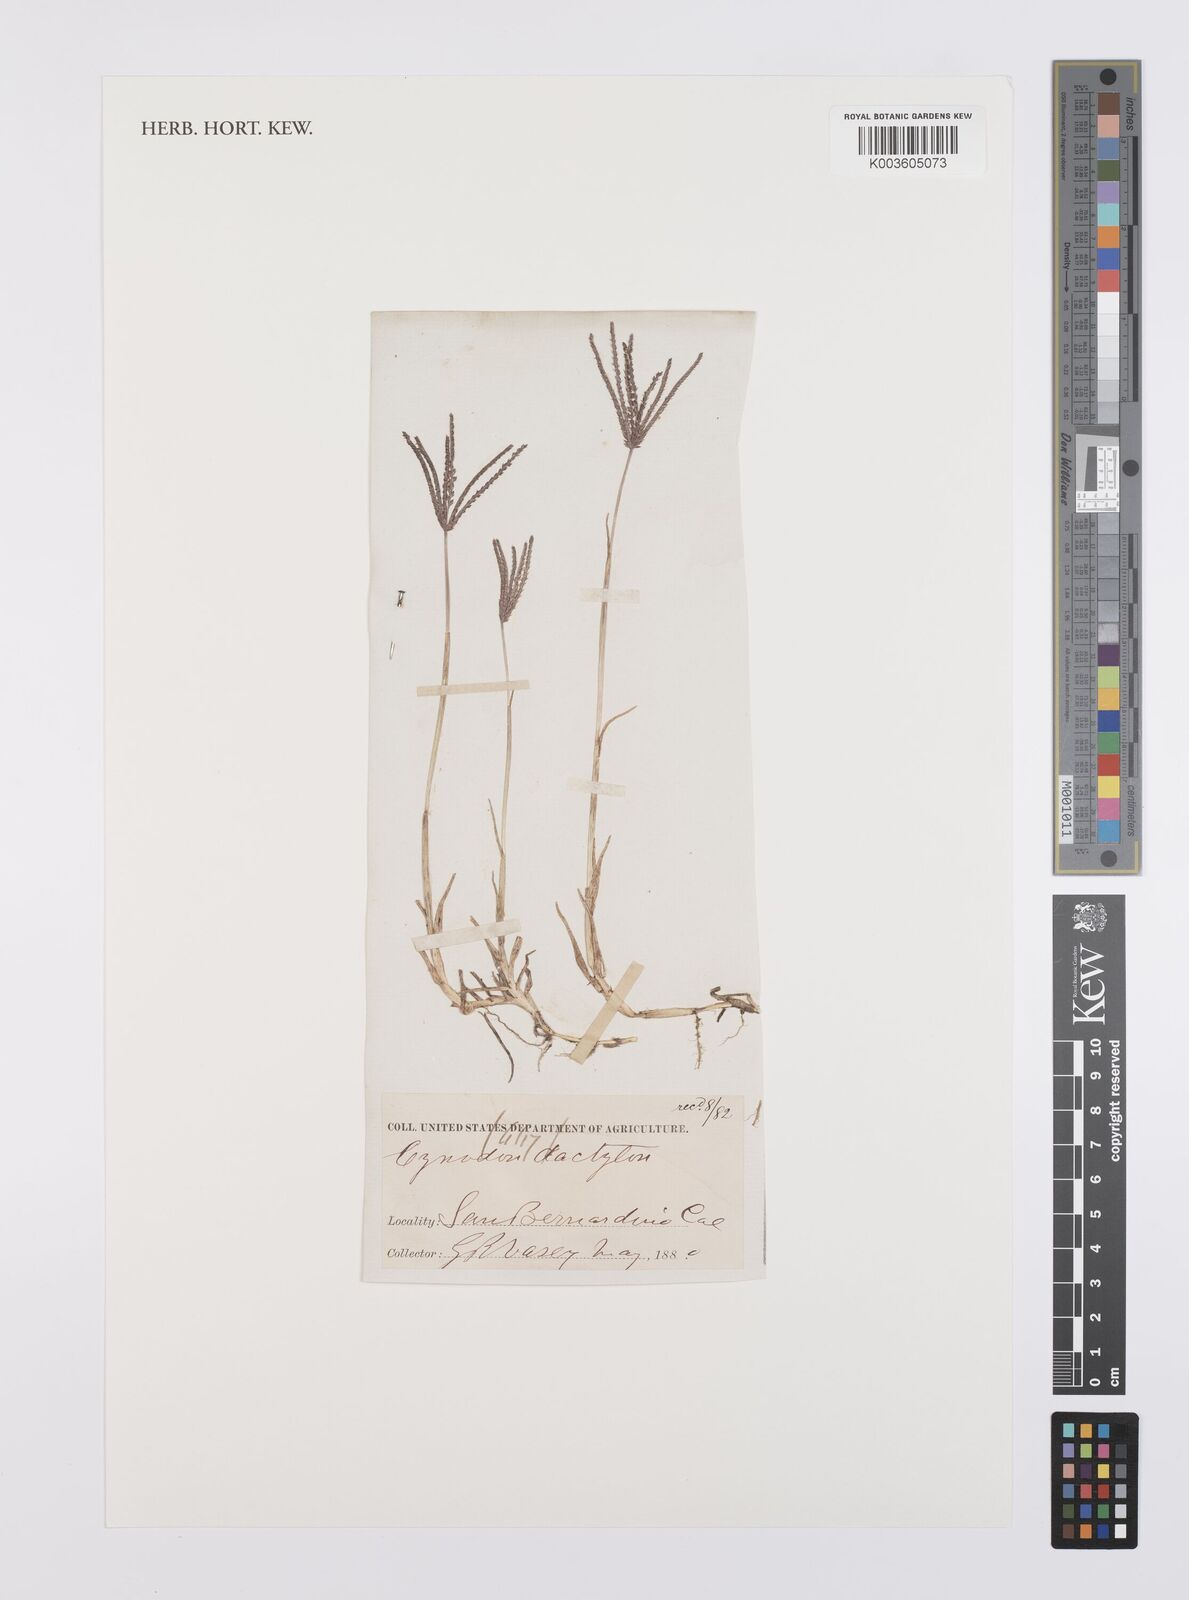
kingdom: Plantae
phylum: Tracheophyta
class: Liliopsida
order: Poales
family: Poaceae
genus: Cynodon
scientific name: Cynodon dactylon
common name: Bermuda grass
